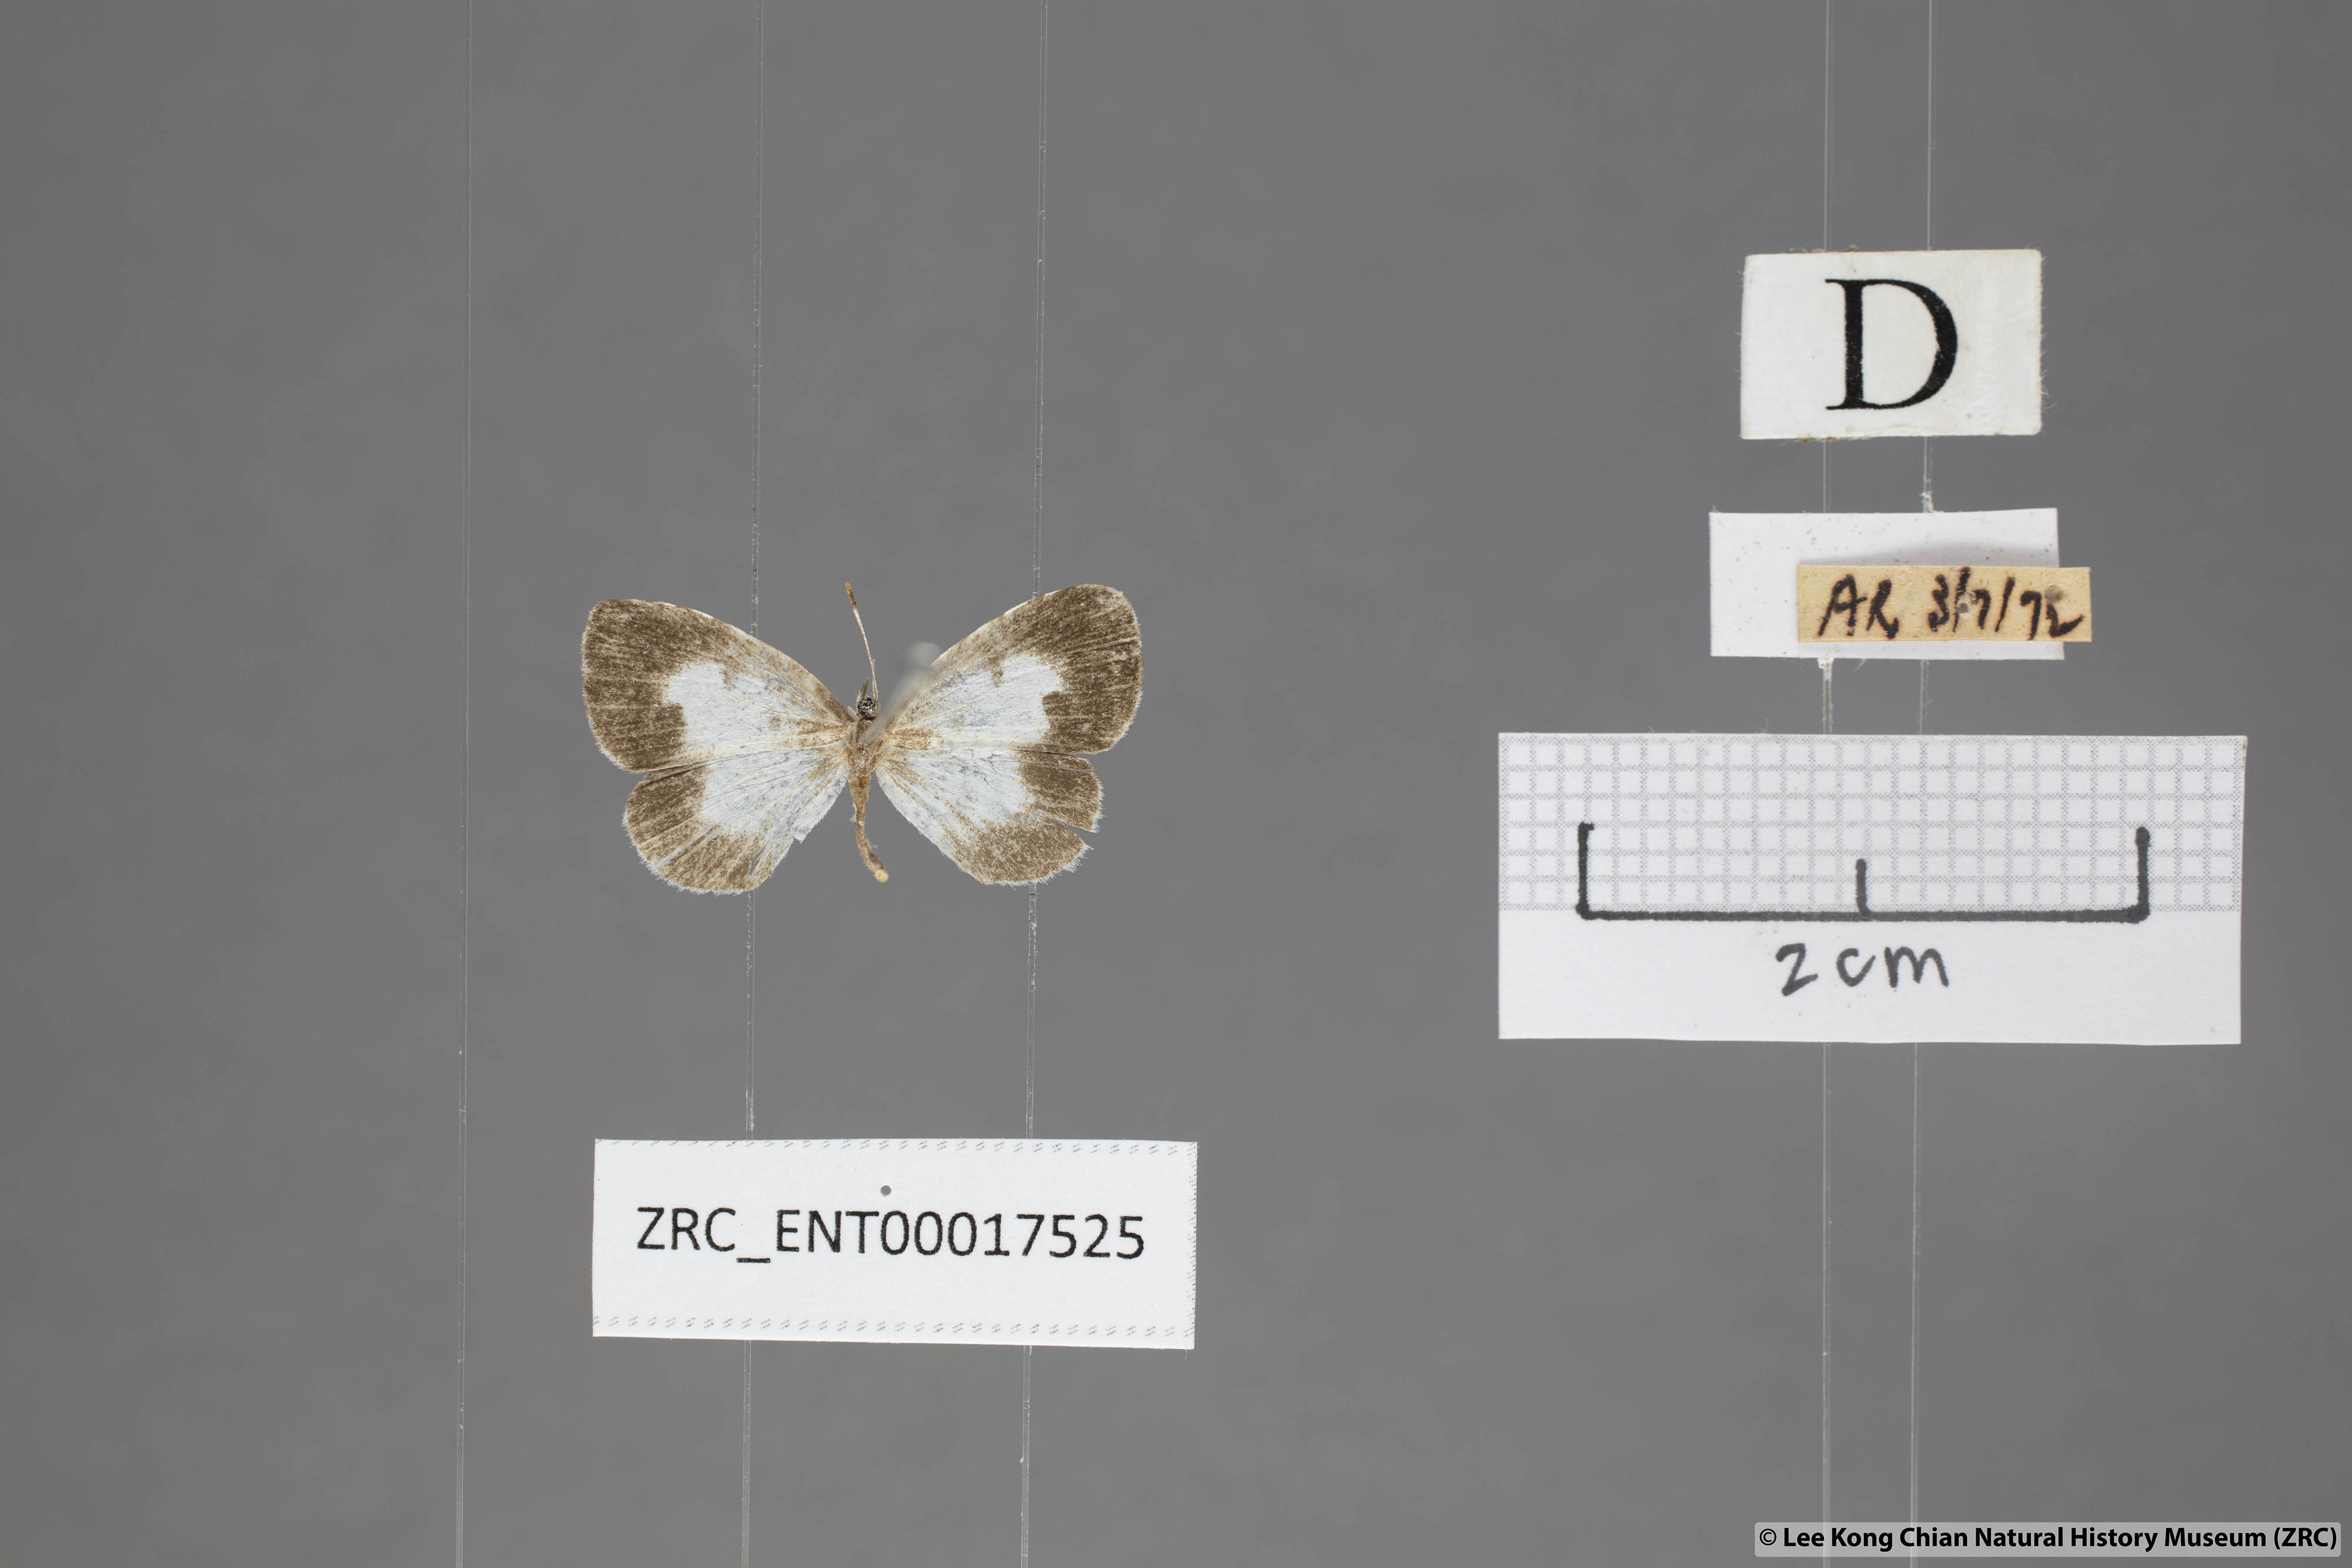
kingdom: Animalia
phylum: Arthropoda
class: Insecta
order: Lepidoptera
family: Lycaenidae
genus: Taraka
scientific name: Taraka mahanetra
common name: Lesser pierrot
